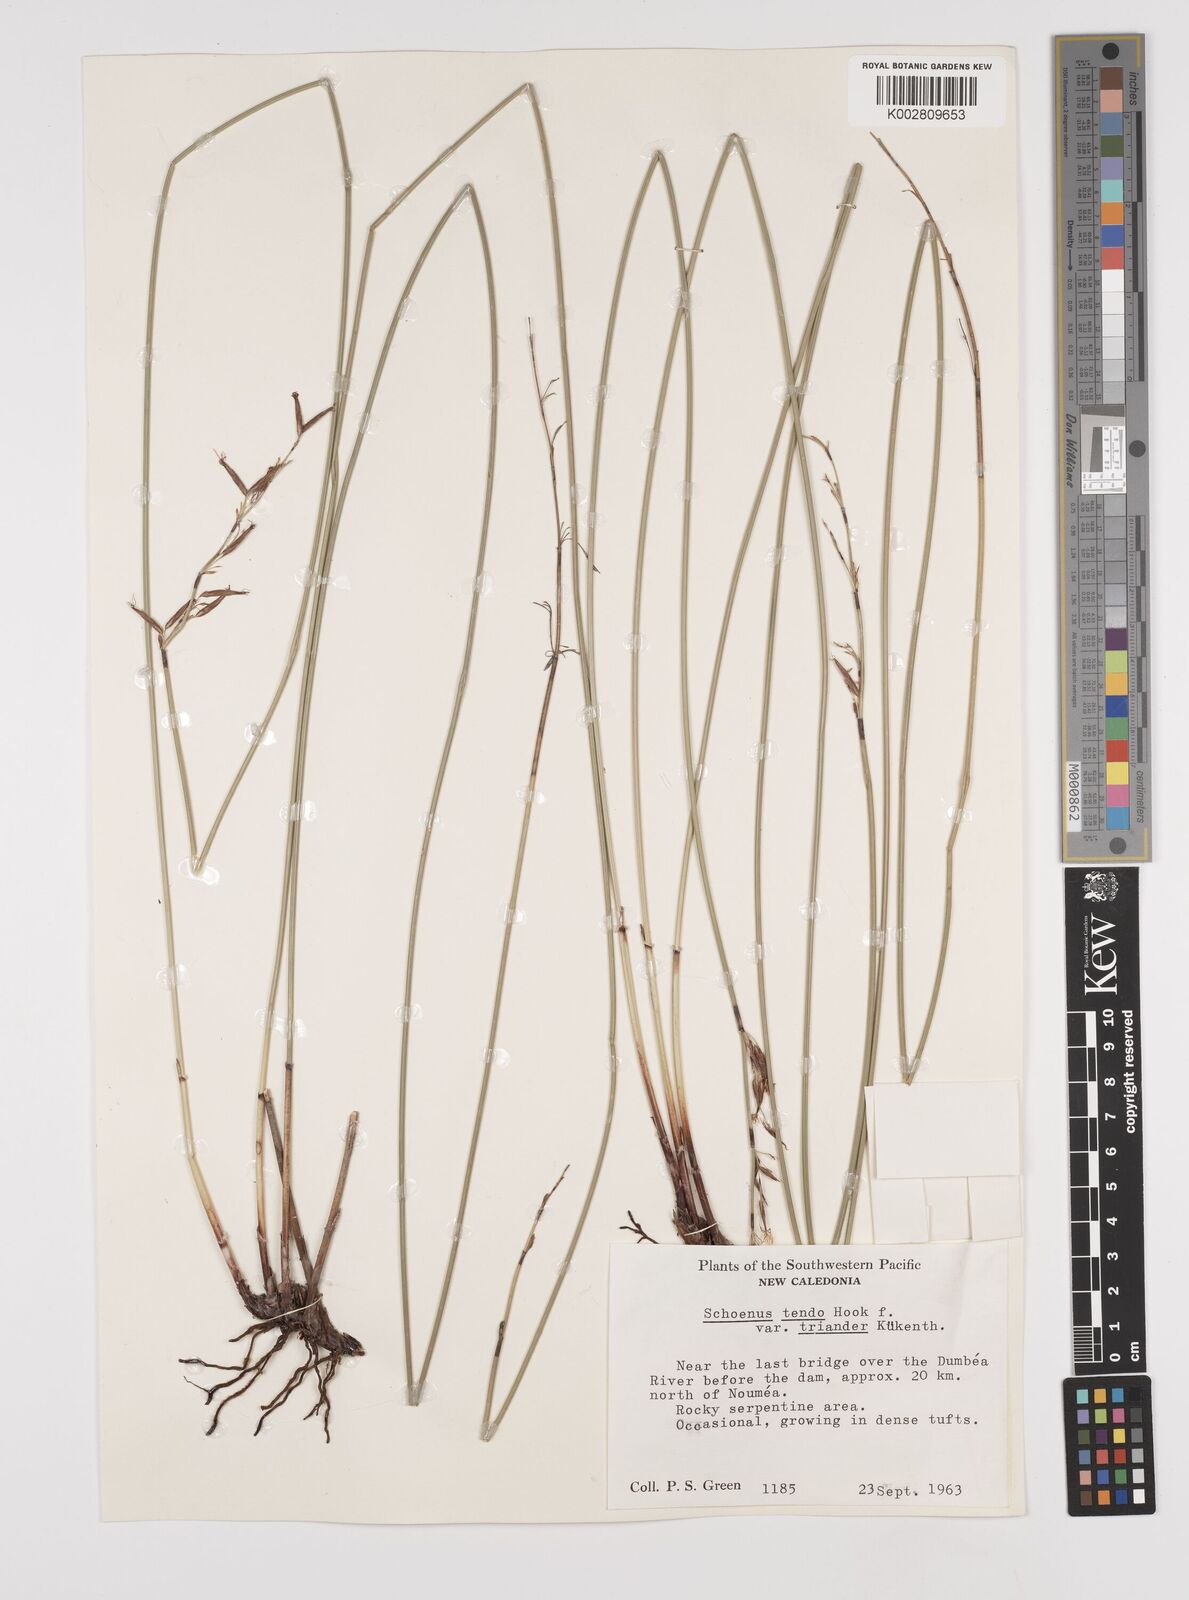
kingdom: Plantae
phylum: Tracheophyta
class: Liliopsida
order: Poales
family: Cyperaceae
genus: Schoenus
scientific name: Schoenus tendo
